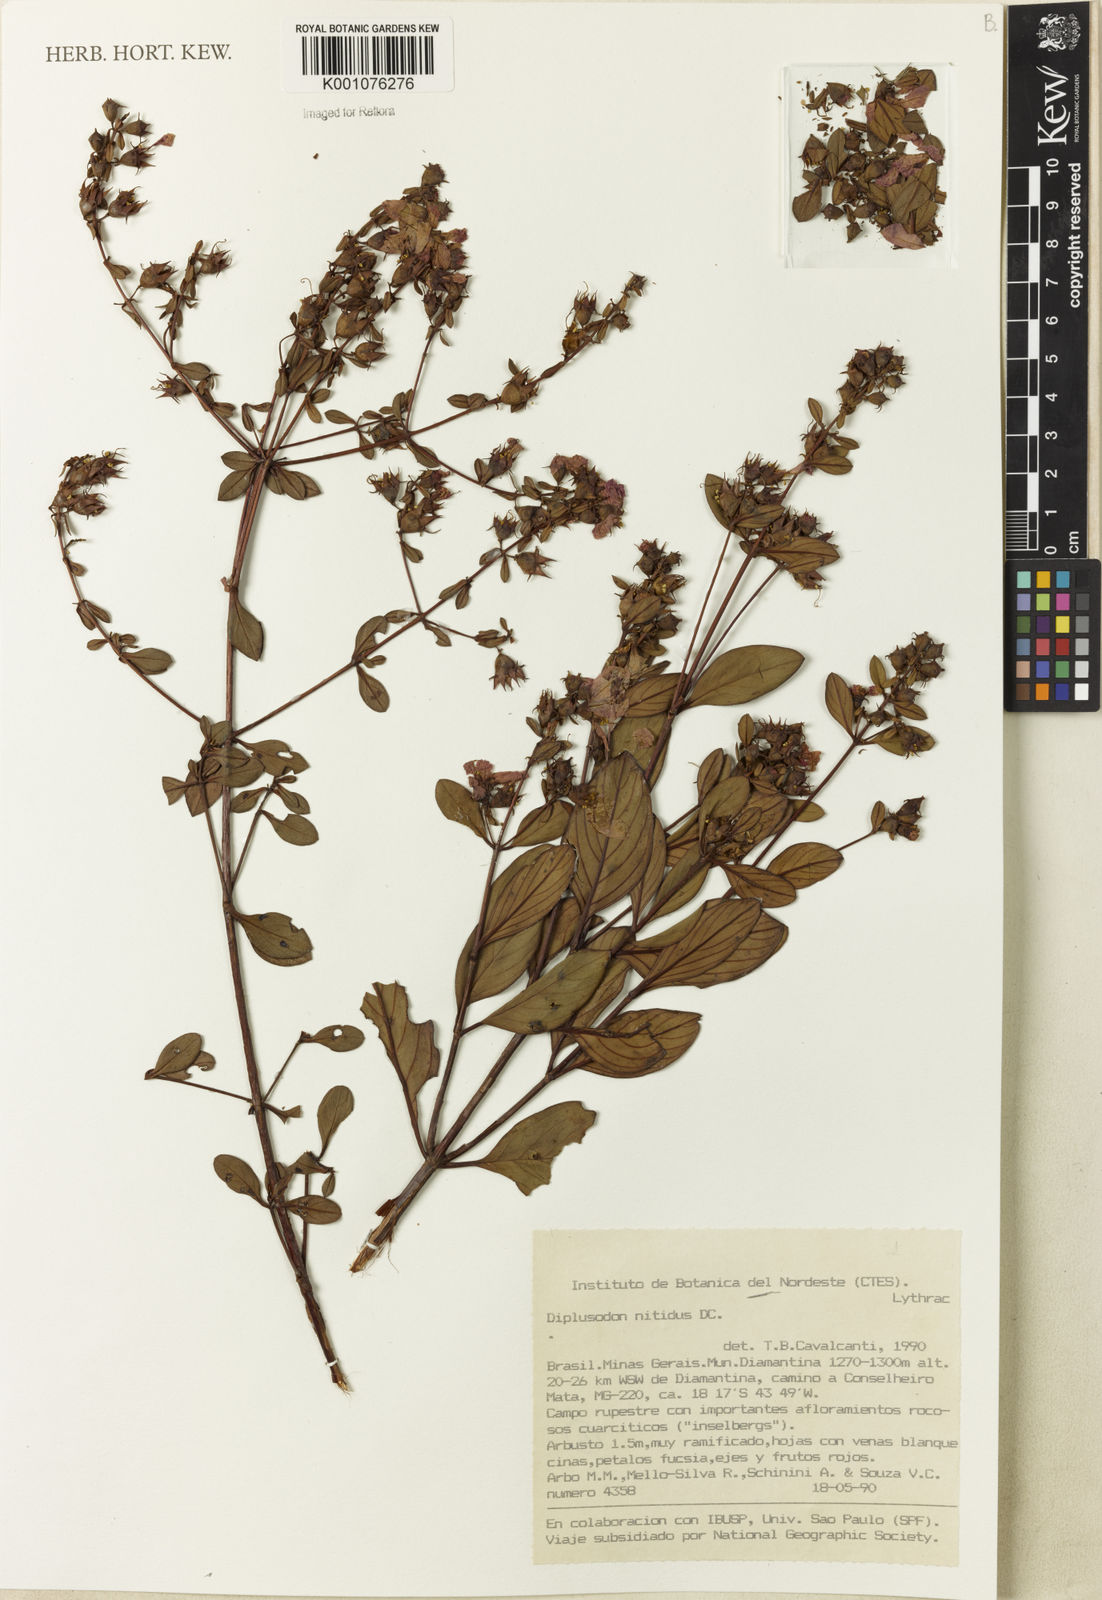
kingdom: Plantae
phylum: Tracheophyta
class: Magnoliopsida
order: Myrtales
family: Lythraceae
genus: Diplusodon
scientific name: Diplusodon nitidus
